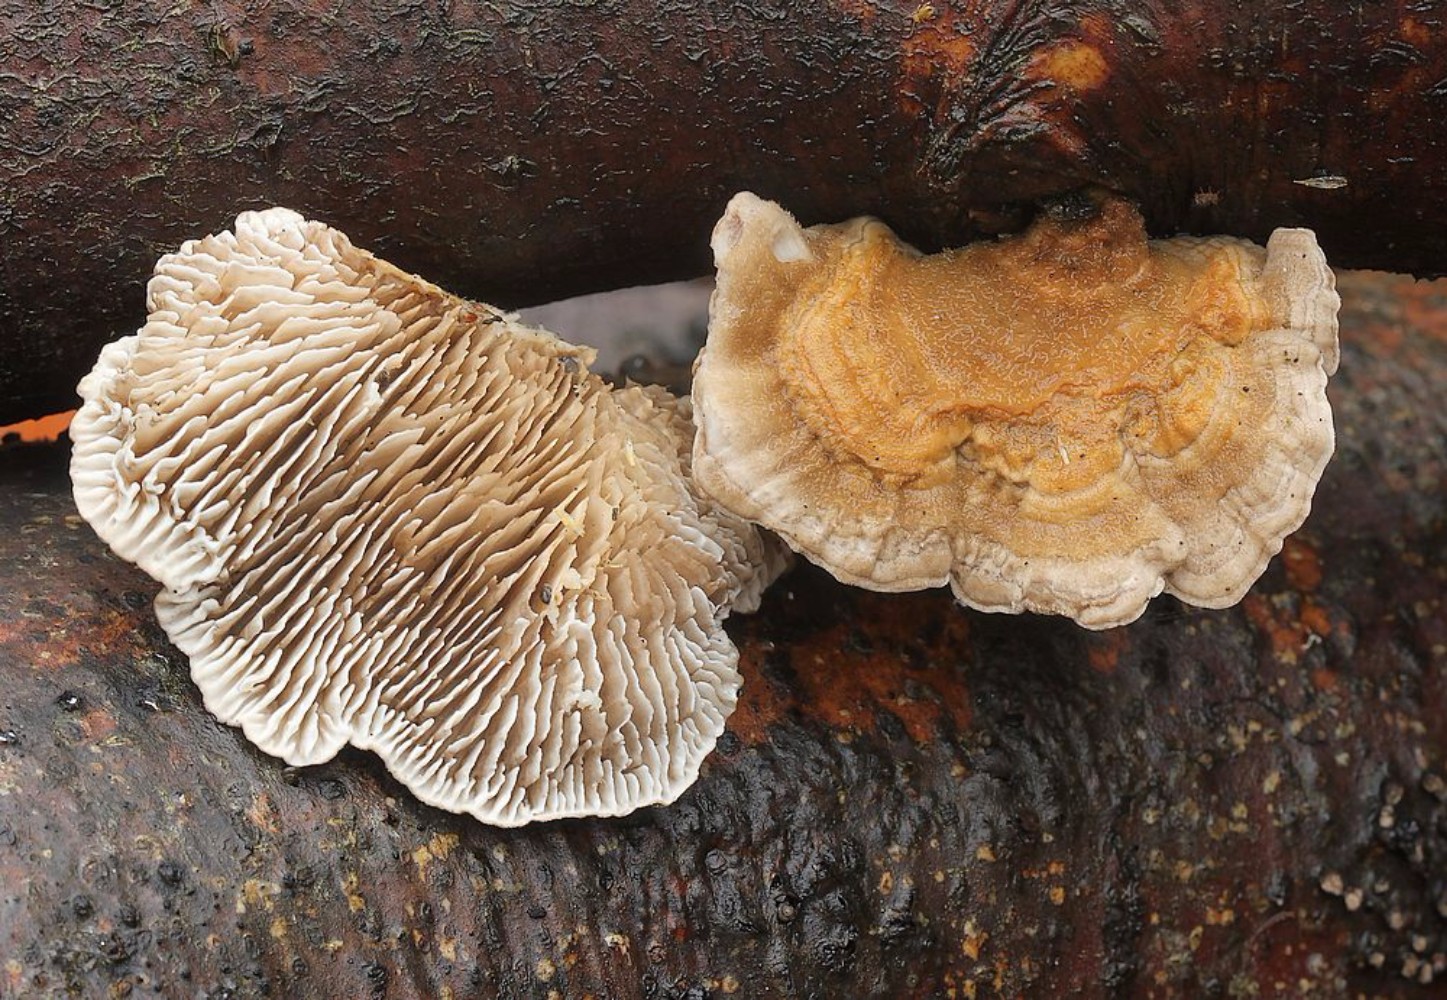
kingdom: Fungi
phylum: Basidiomycota
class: Agaricomycetes
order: Polyporales
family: Polyporaceae
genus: Lenzites
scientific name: Lenzites betulinus
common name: birke-læderporesvamp
